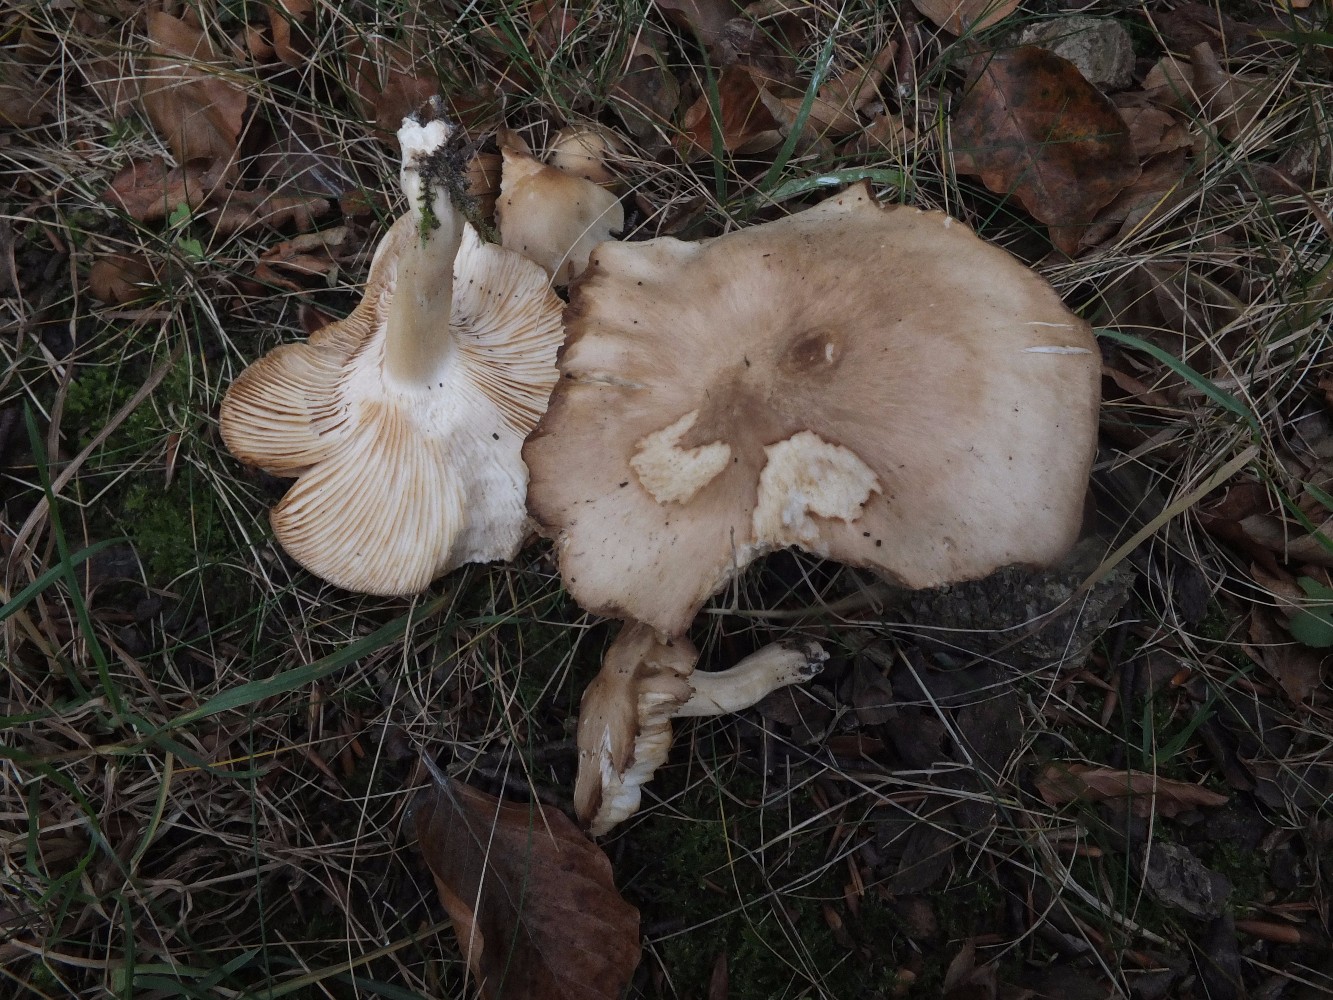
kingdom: Fungi
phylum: Basidiomycota
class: Agaricomycetes
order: Agaricales
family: Lyophyllaceae
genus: Lyophyllum
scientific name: Lyophyllum
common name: gråblad
